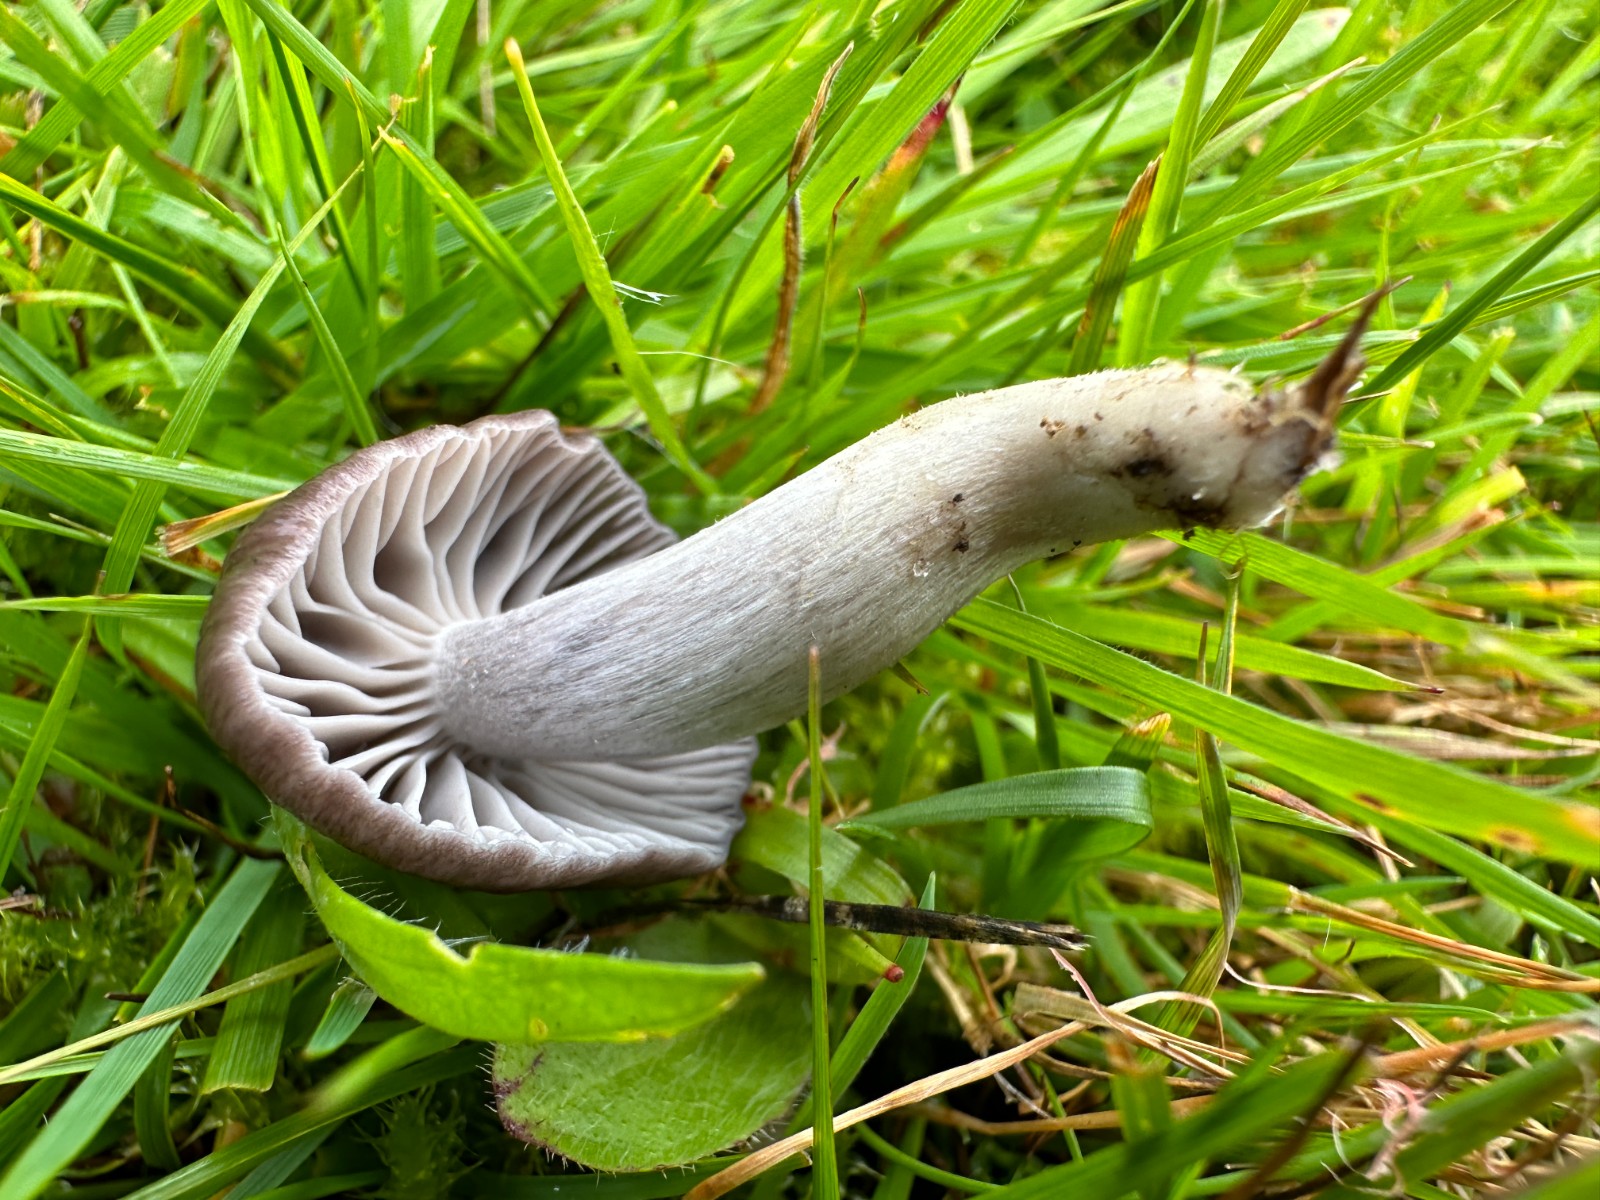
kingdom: Fungi
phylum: Basidiomycota
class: Agaricomycetes
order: Agaricales
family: Hygrophoraceae
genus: Cuphophyllus
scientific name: Cuphophyllus
